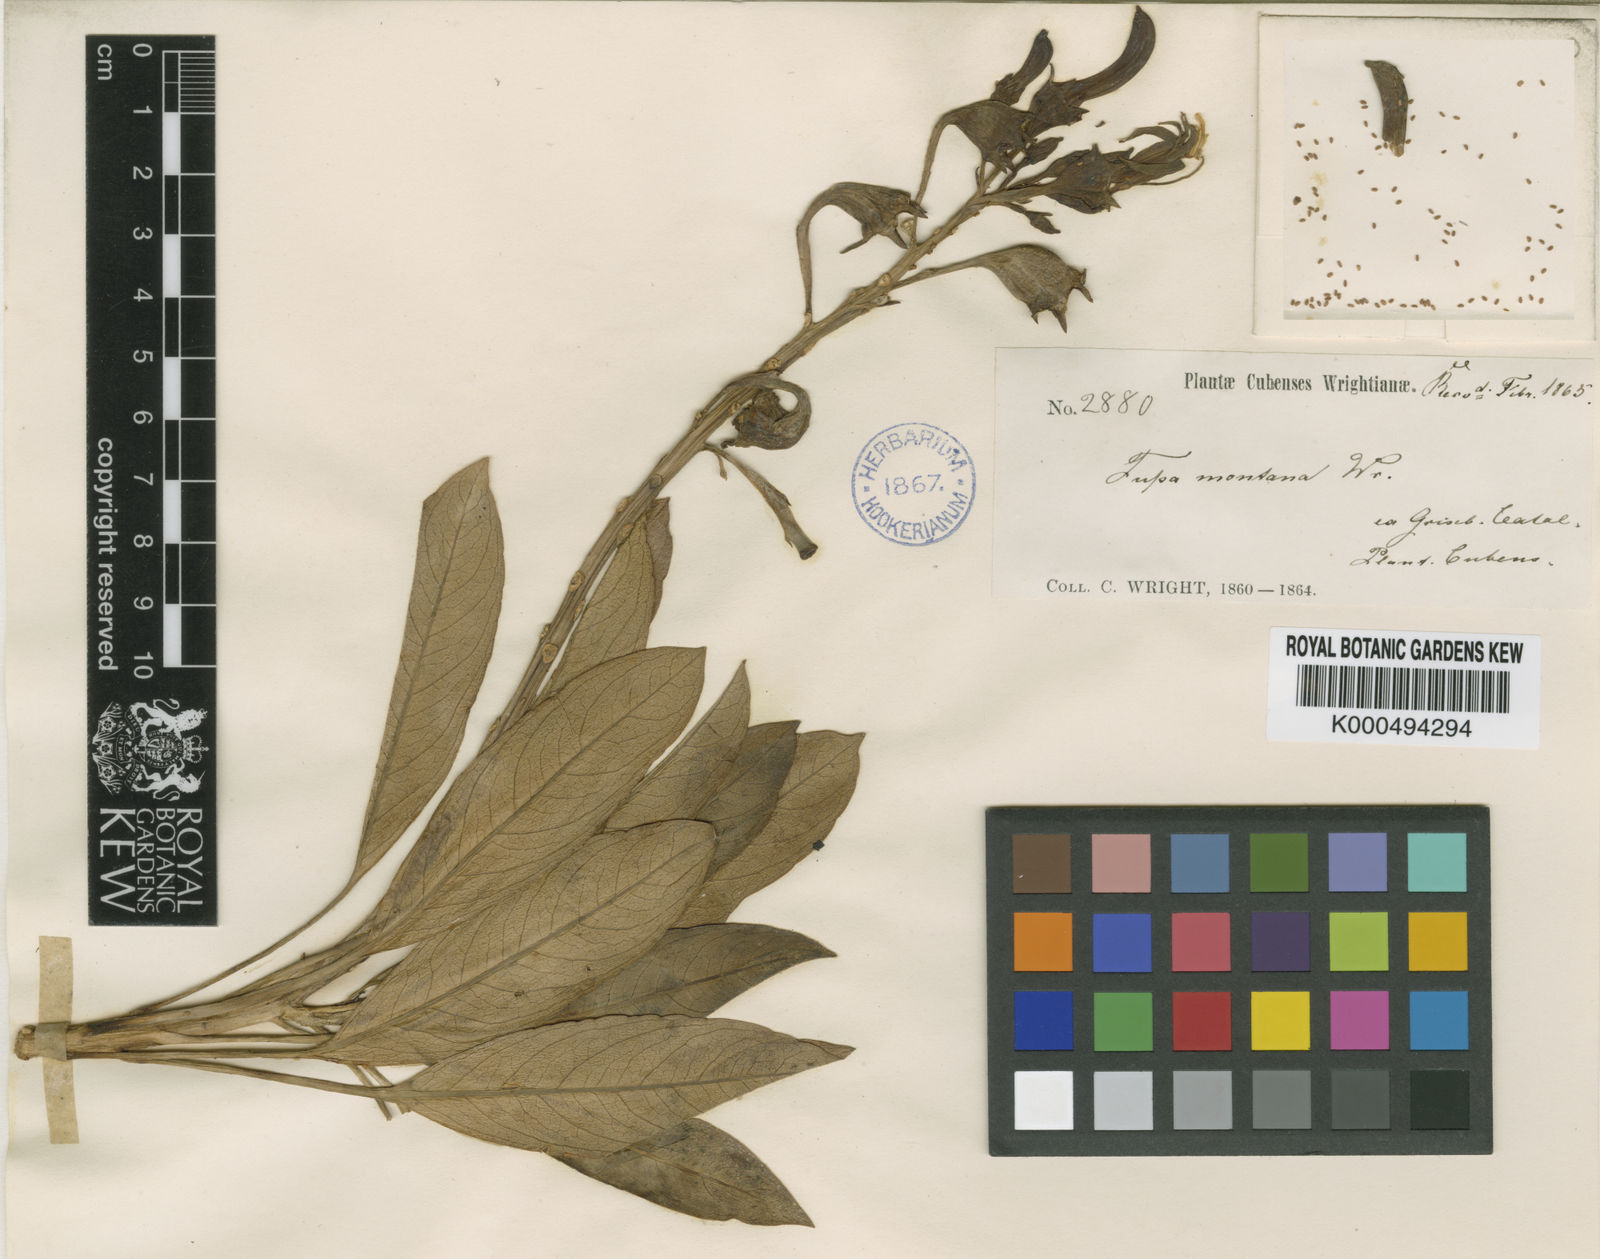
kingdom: Plantae
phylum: Tracheophyta
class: Magnoliopsida
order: Asterales
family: Campanulaceae
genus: Lobelia
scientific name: Lobelia cubana
